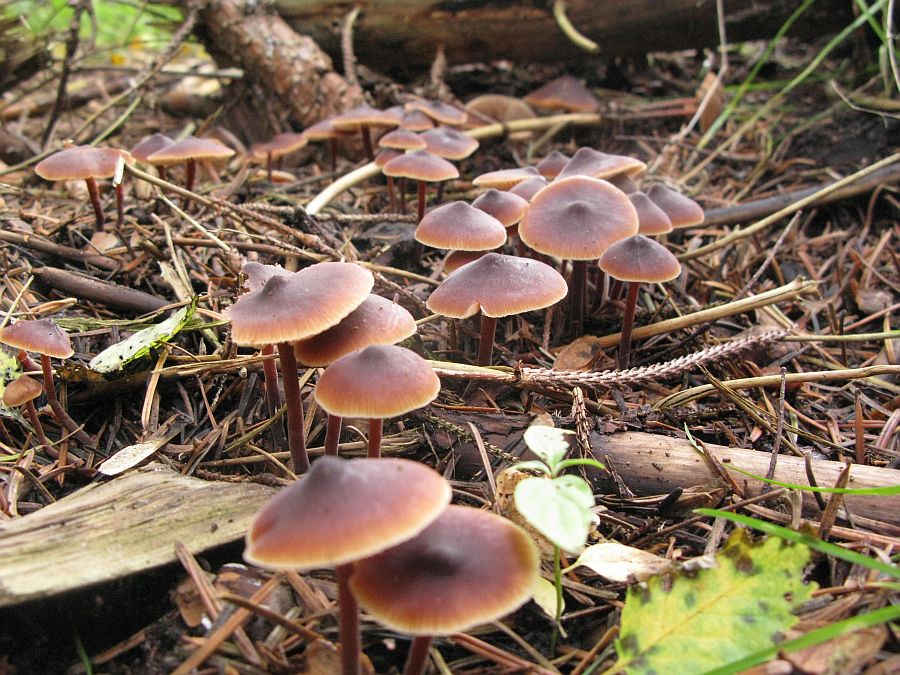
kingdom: Fungi
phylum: Basidiomycota
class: Agaricomycetes
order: Agaricales
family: Macrocystidiaceae
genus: Macrocystidia
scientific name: Macrocystidia cucumis
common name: agurkehat
